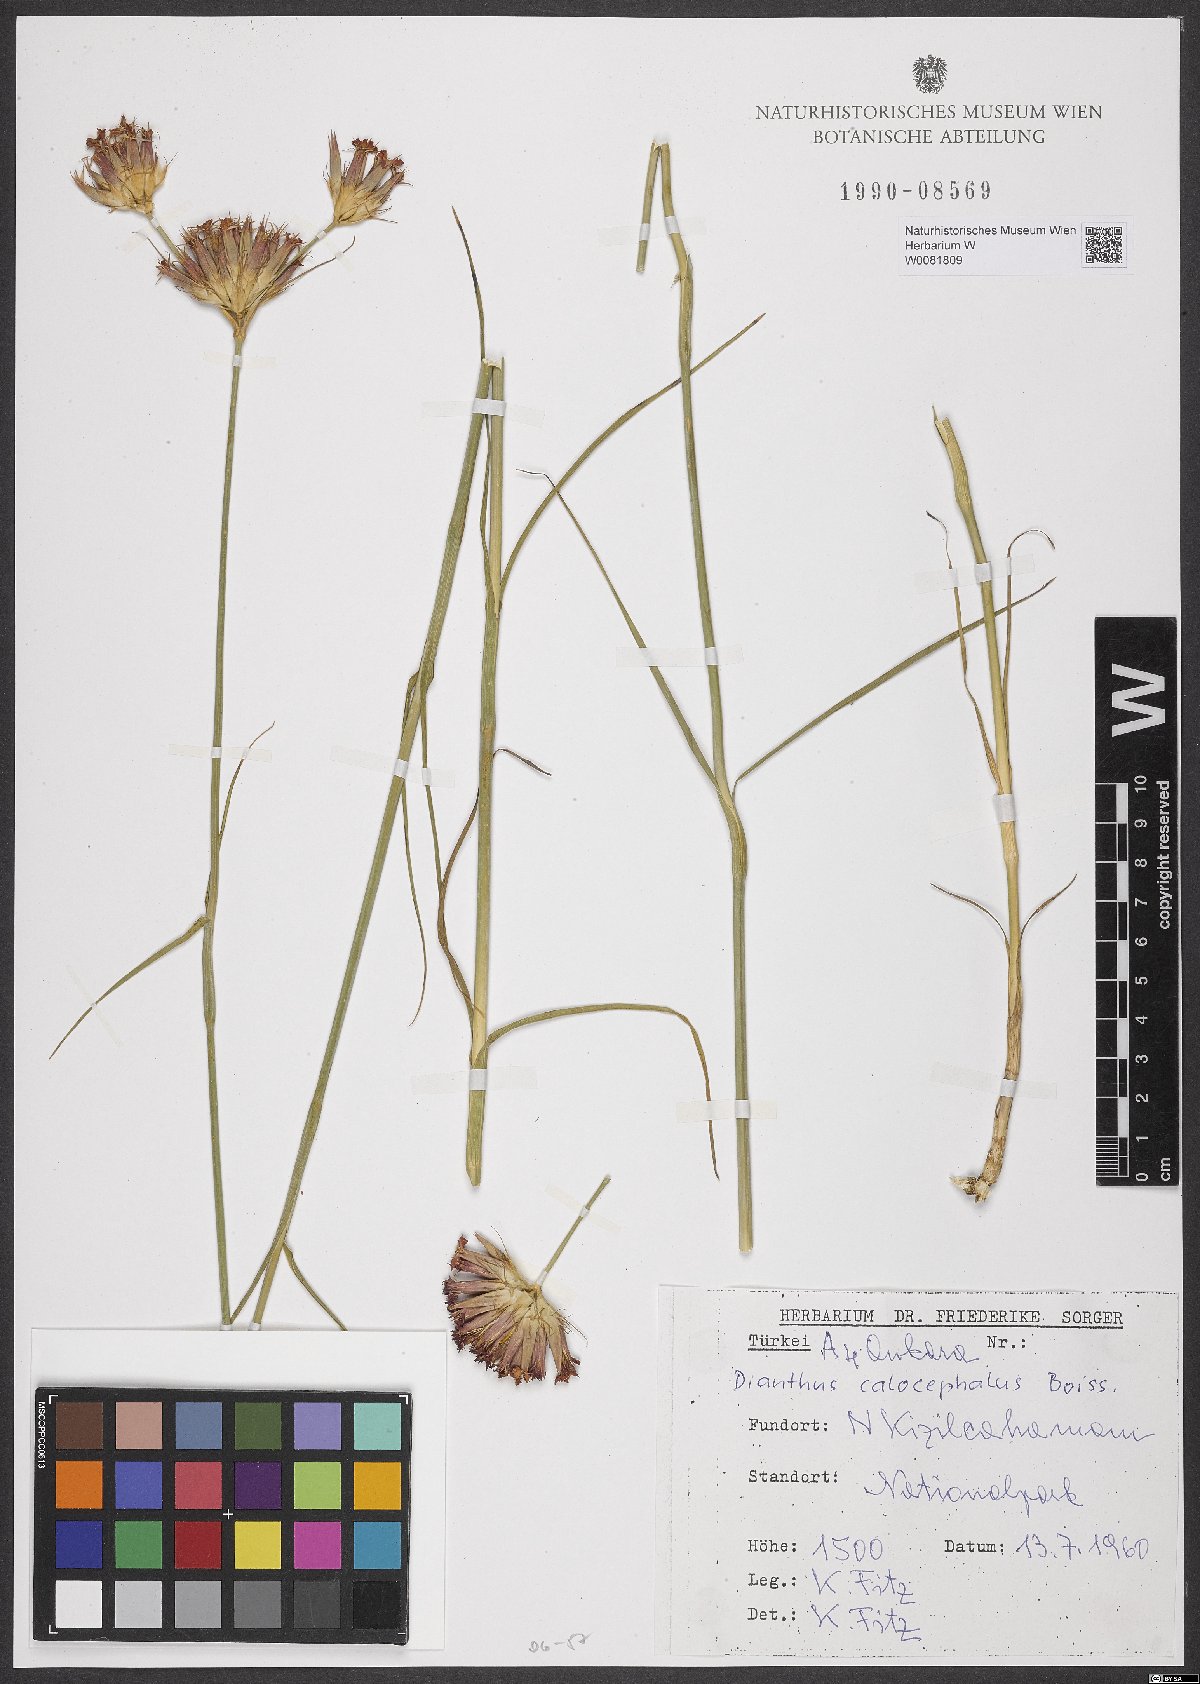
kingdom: Plantae
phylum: Tracheophyta
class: Magnoliopsida
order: Caryophyllales
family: Caryophyllaceae
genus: Dianthus
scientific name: Dianthus cruentus
